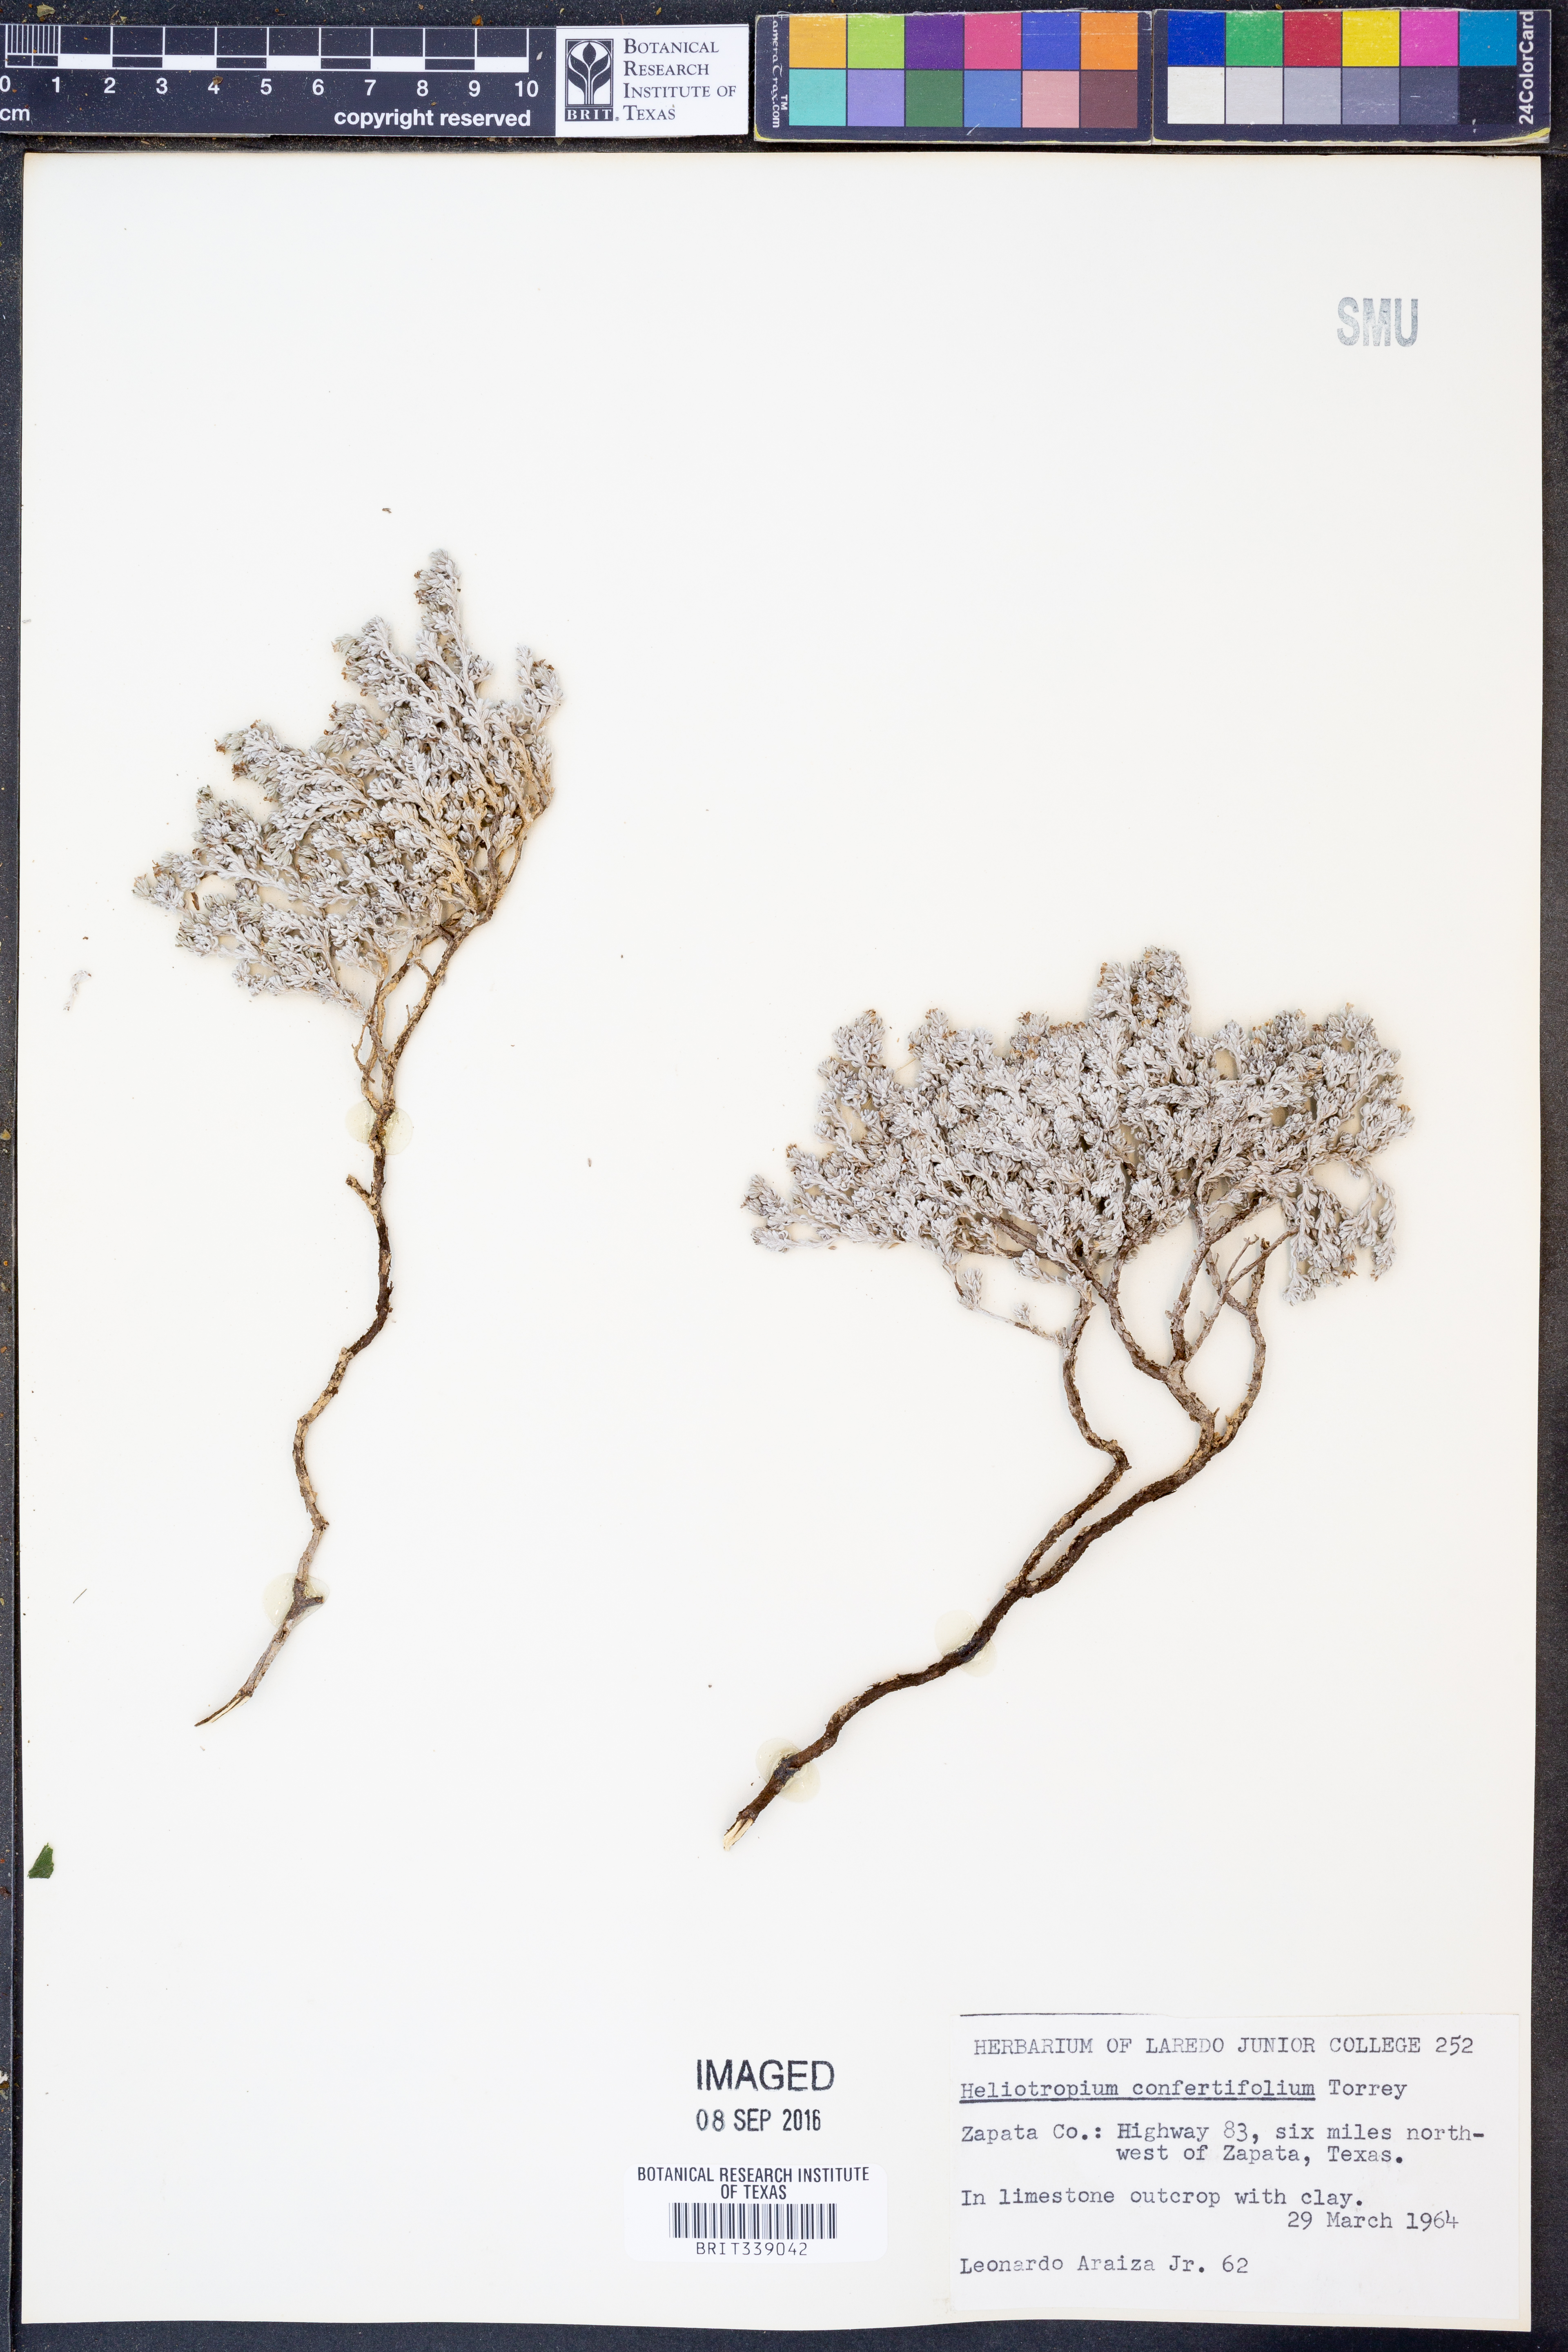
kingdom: Plantae
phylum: Tracheophyta
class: Magnoliopsida
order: Boraginales
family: Heliotropiaceae
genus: Euploca
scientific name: Euploca confertifolia
